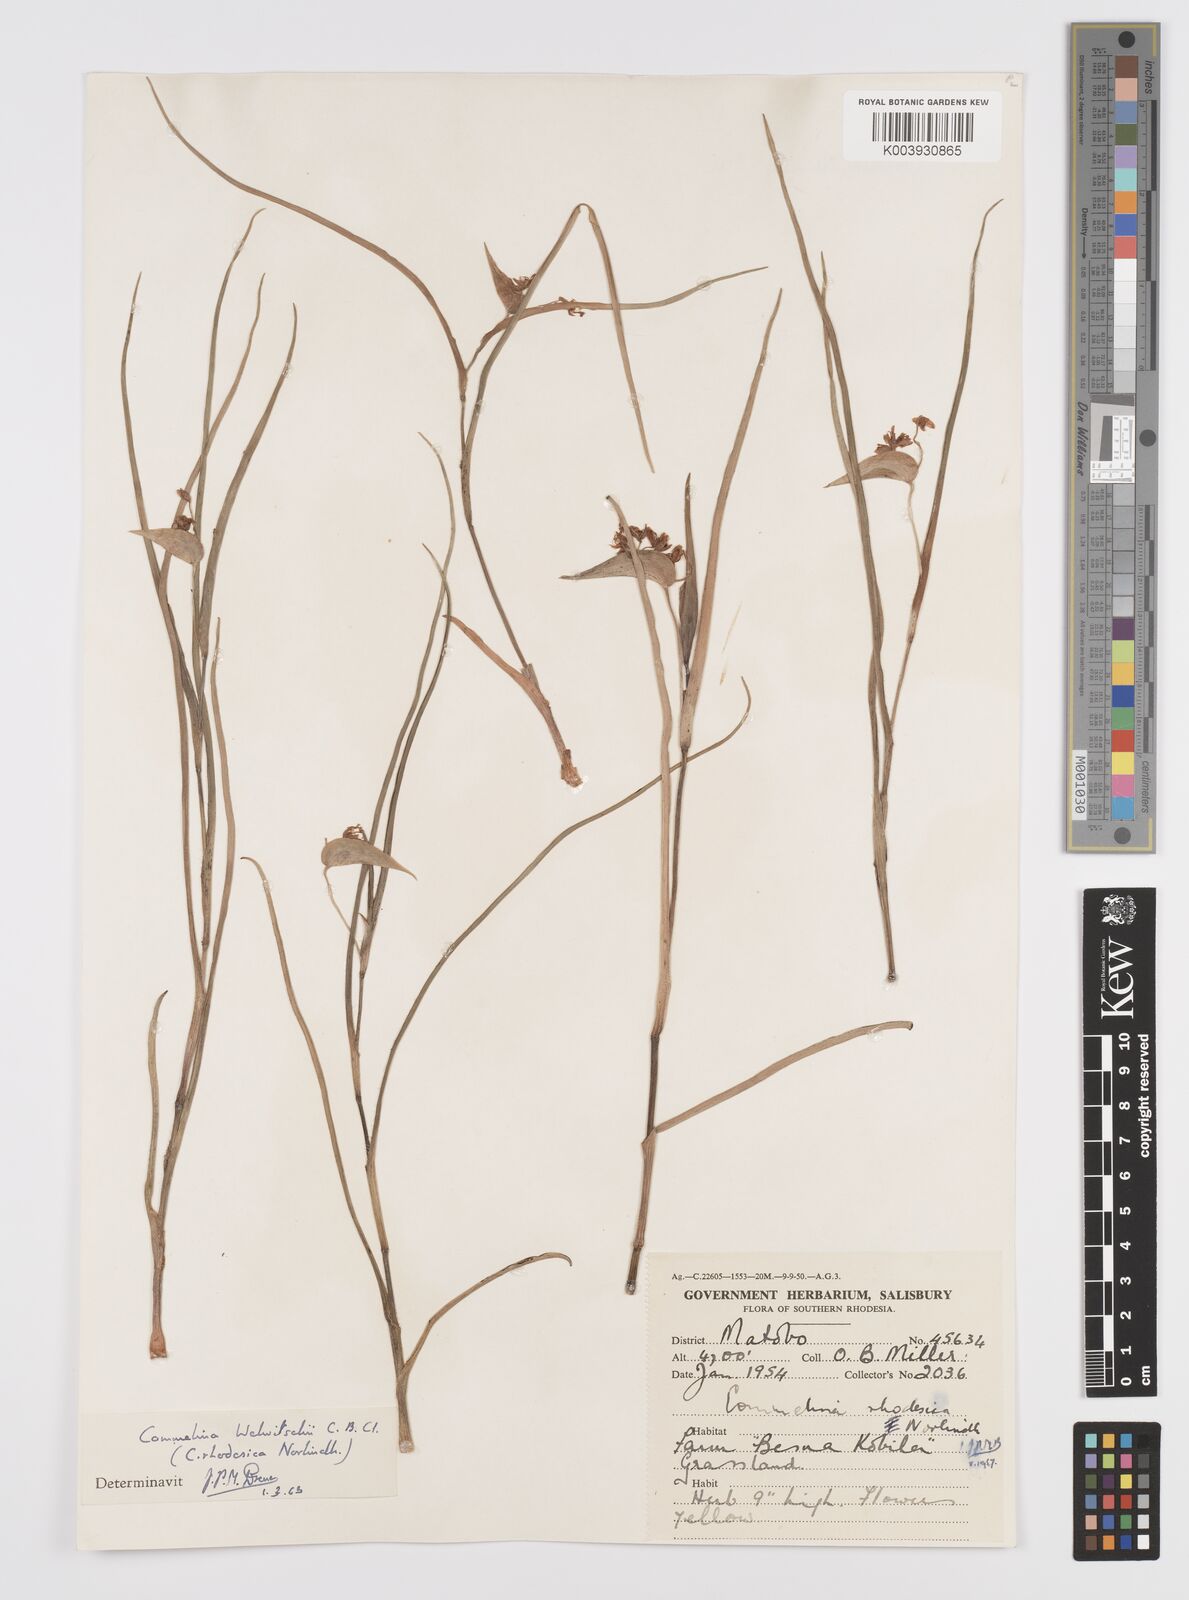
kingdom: Plantae
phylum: Tracheophyta
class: Liliopsida
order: Commelinales
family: Commelinaceae
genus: Commelina
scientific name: Commelina welwitschii
